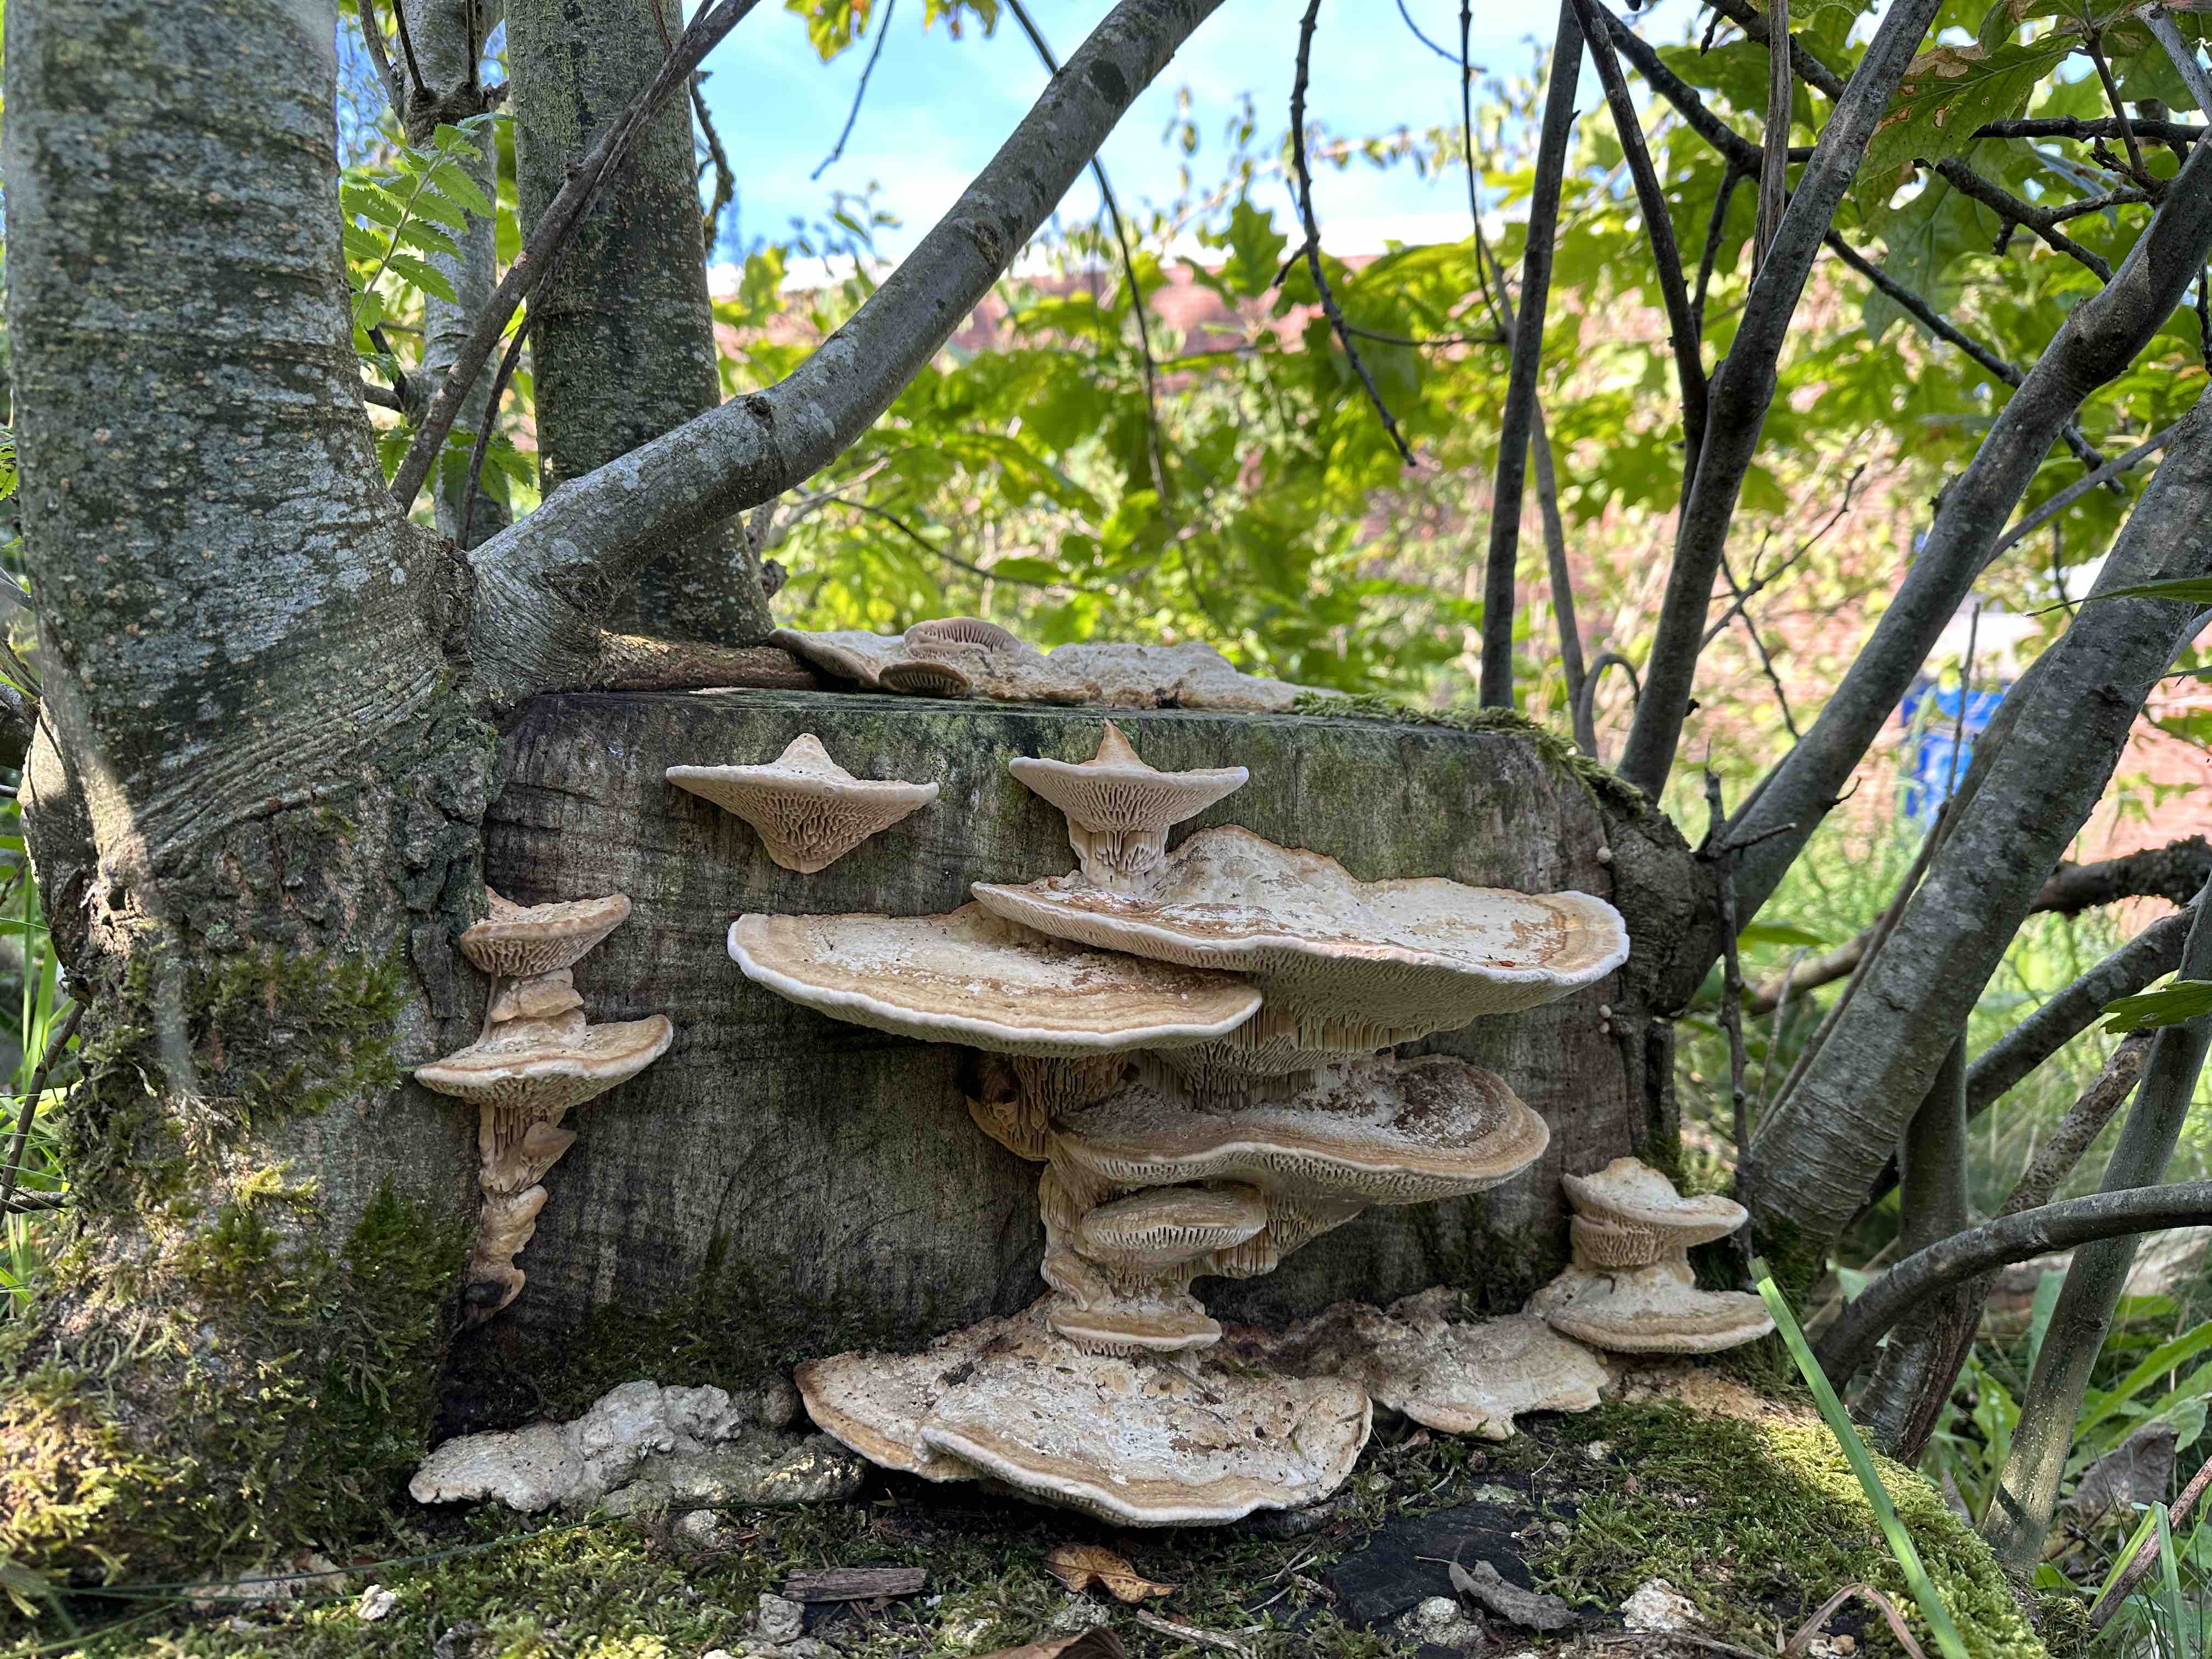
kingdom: Fungi
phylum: Basidiomycota
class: Agaricomycetes
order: Polyporales
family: Fomitopsidaceae
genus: Daedalea
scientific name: Daedalea quercina
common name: ege-labyrintsvamp
